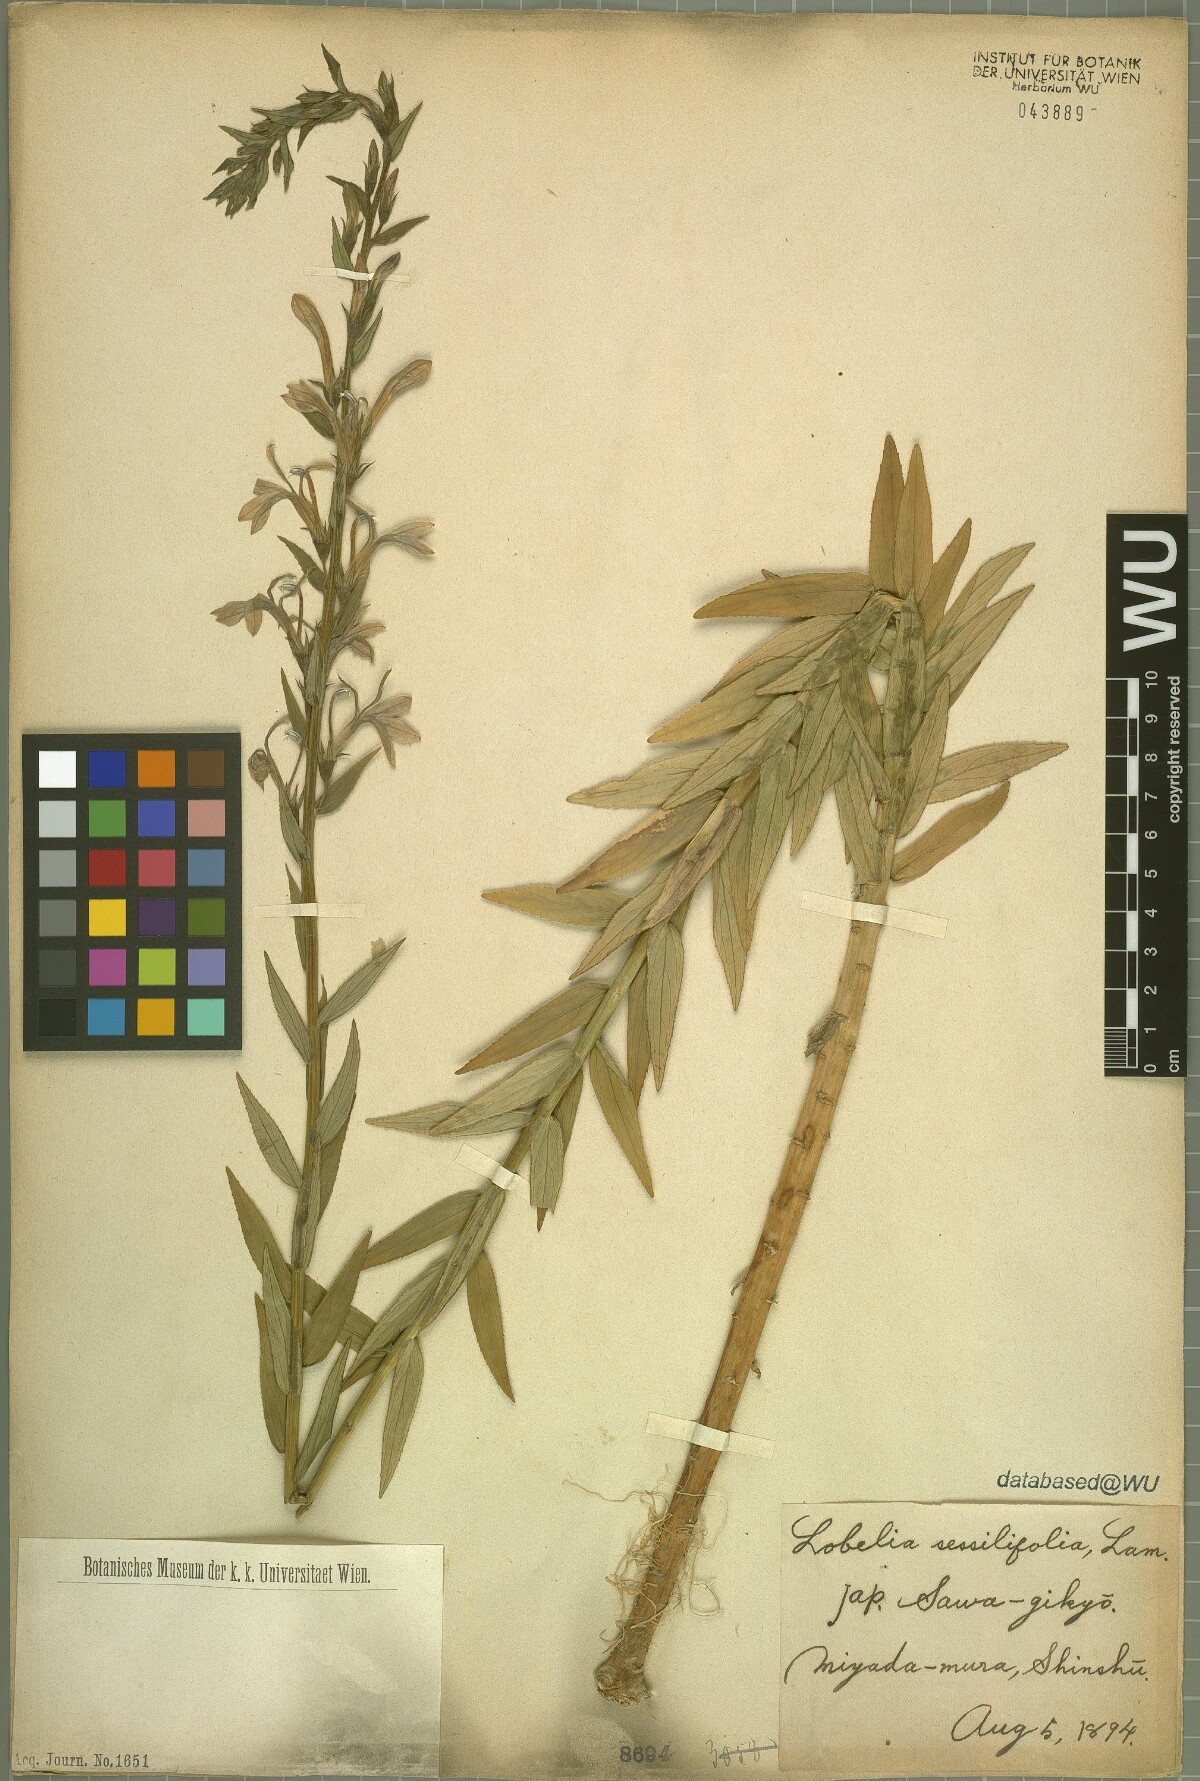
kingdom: Plantae
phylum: Tracheophyta
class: Magnoliopsida
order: Asterales
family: Campanulaceae
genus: Lobelia
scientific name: Lobelia sessilifolia
